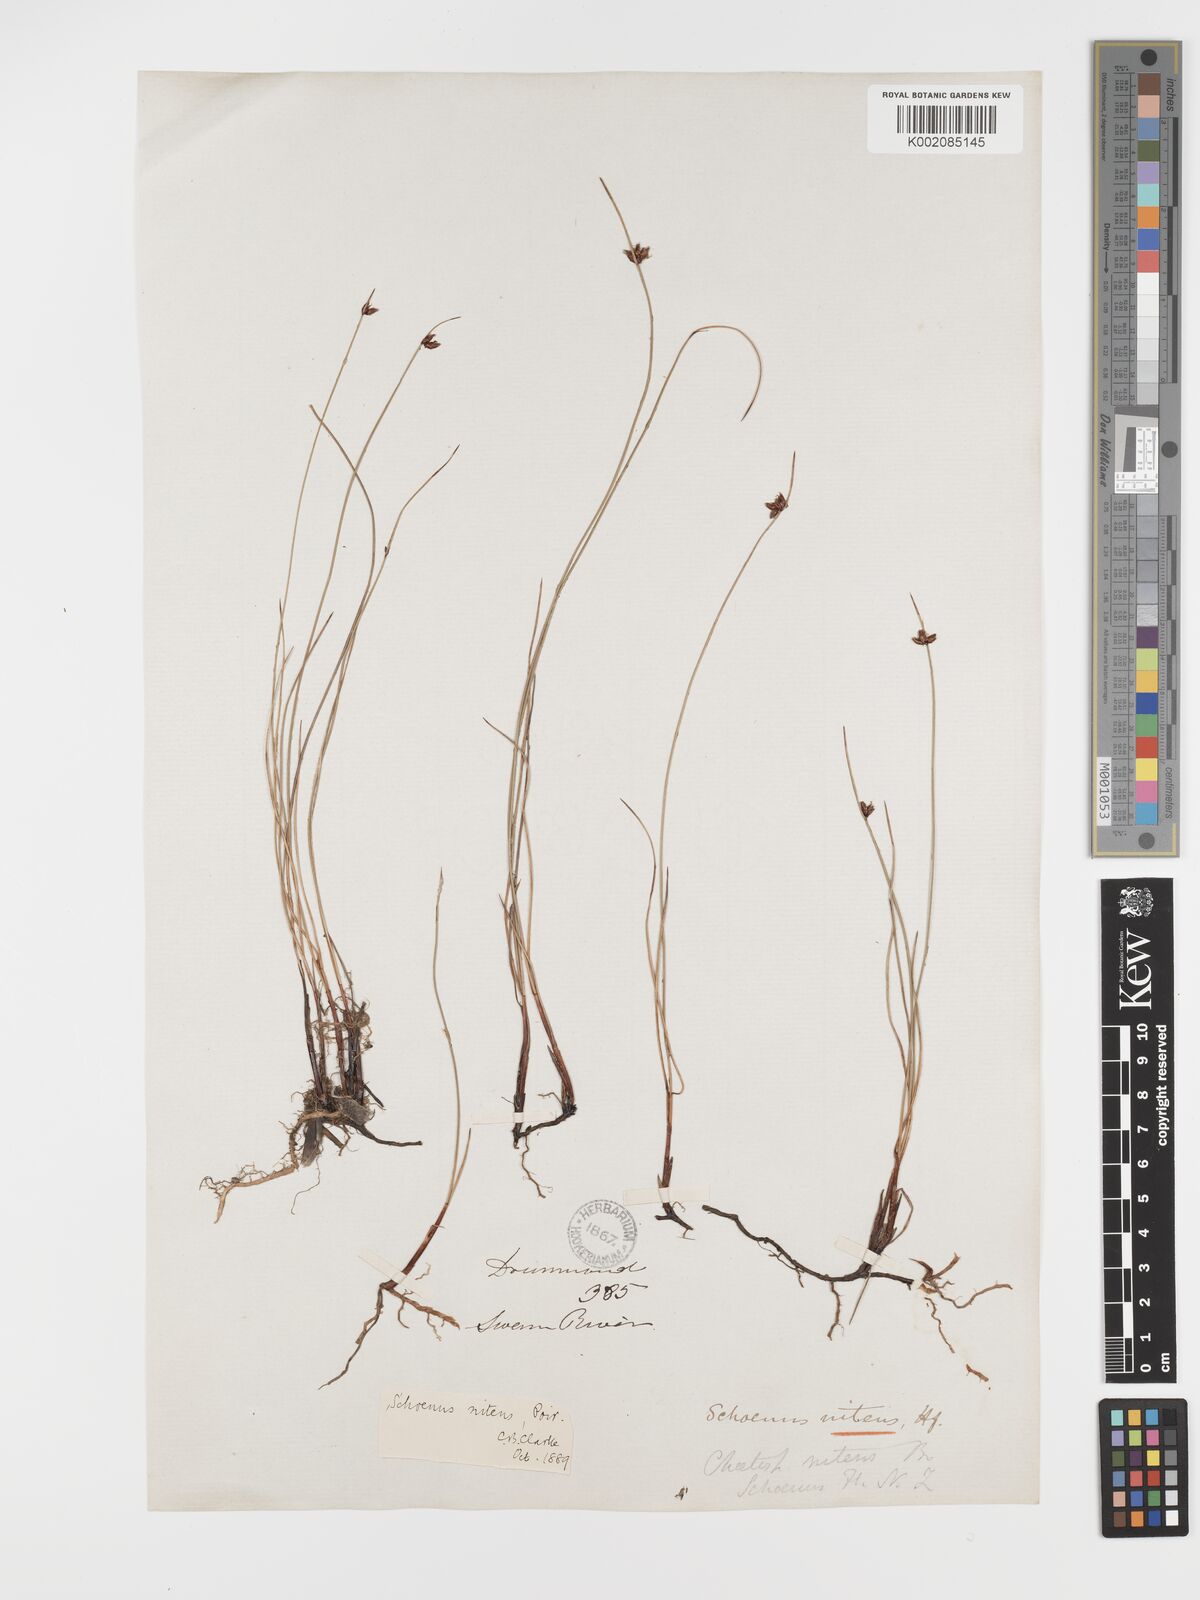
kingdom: Plantae
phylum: Tracheophyta
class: Liliopsida
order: Poales
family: Cyperaceae
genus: Schoenus
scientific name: Schoenus nitens
